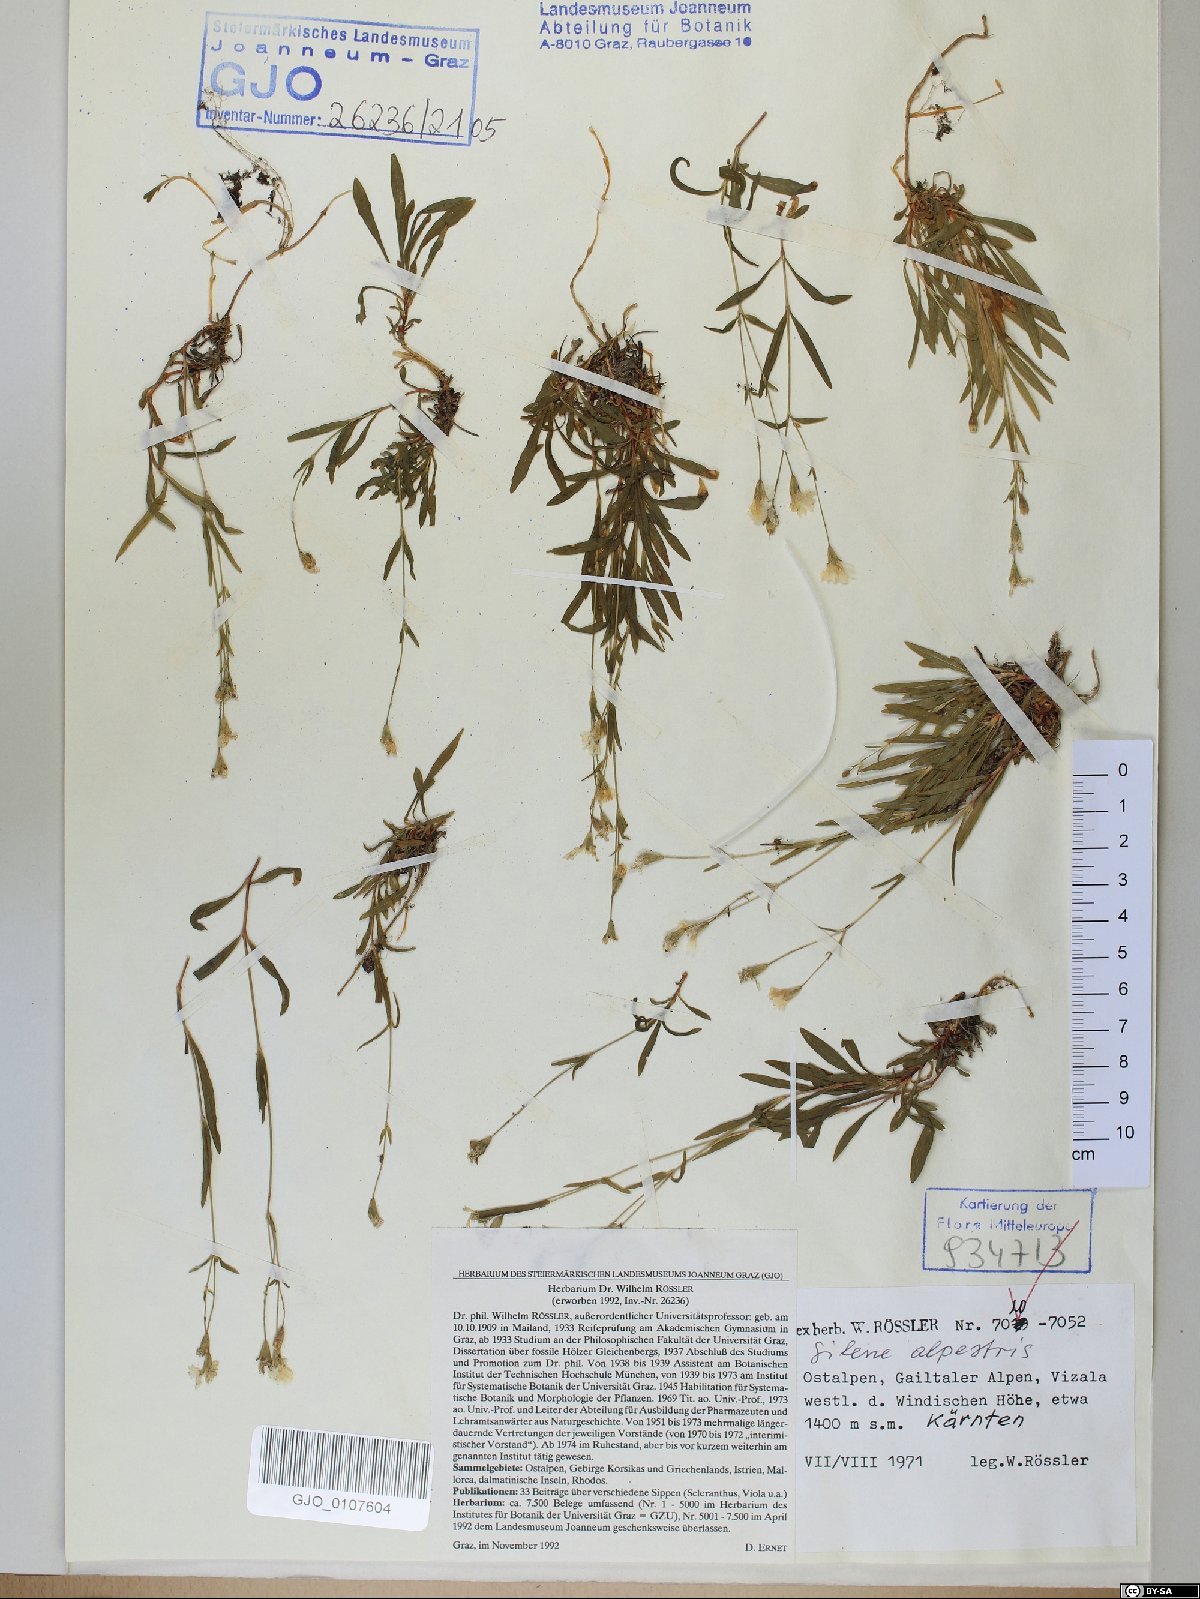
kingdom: Plantae
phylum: Tracheophyta
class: Magnoliopsida
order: Caryophyllales
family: Caryophyllaceae
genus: Heliosperma
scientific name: Heliosperma alpestre
